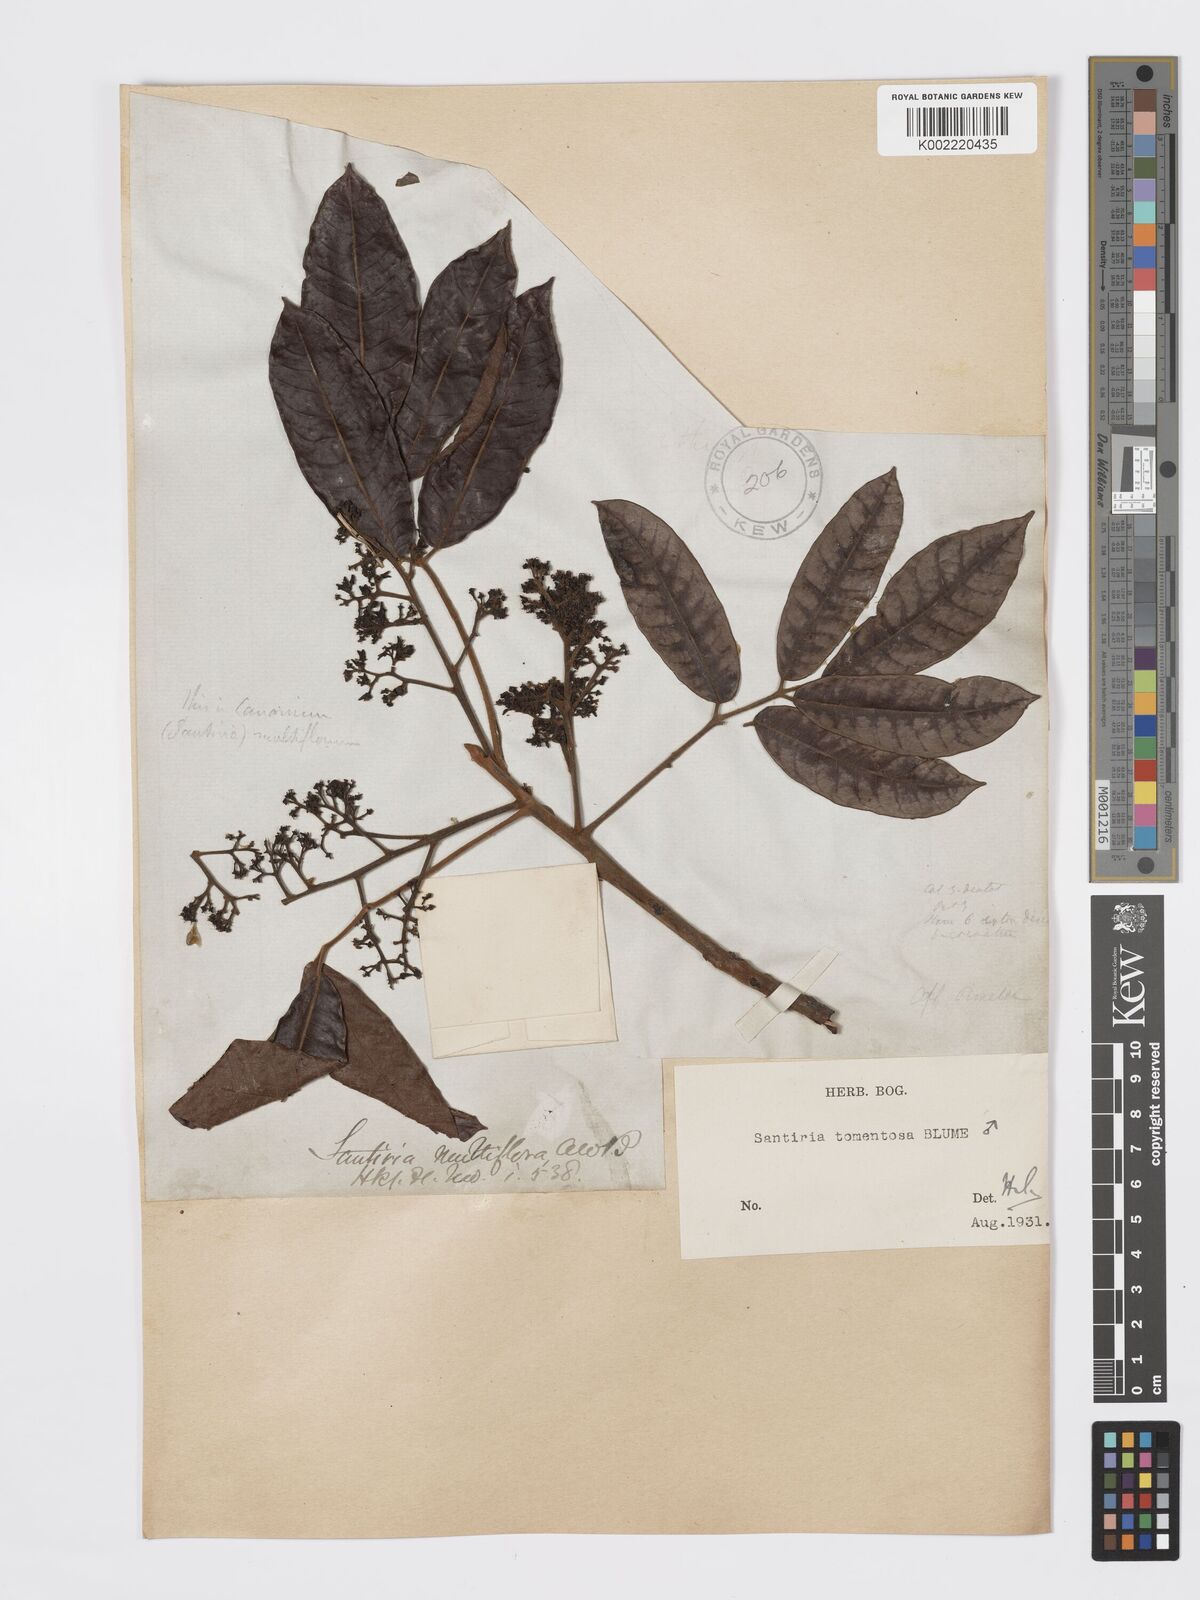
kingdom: Plantae
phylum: Tracheophyta
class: Magnoliopsida
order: Sapindales
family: Burseraceae
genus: Santiria
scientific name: Santiria tomentosa
